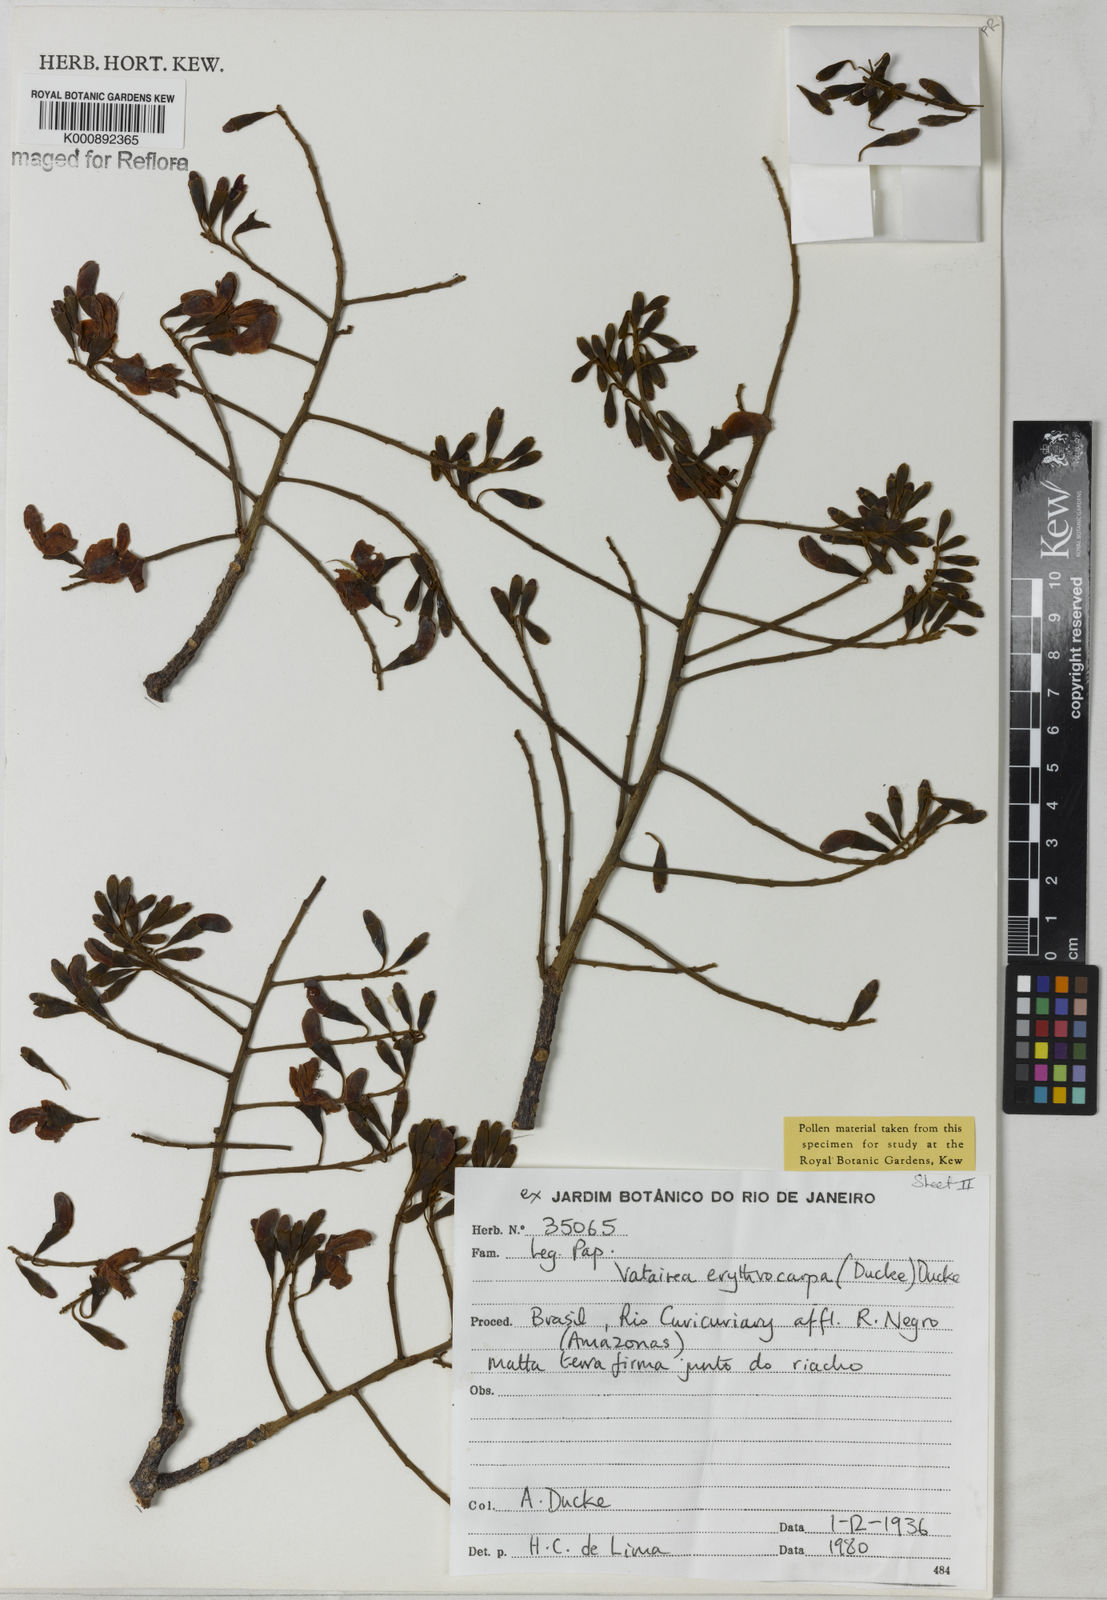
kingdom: Plantae
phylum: Tracheophyta
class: Magnoliopsida
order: Fabales
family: Fabaceae
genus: Vatairea
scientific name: Vatairea erythrocarpa
